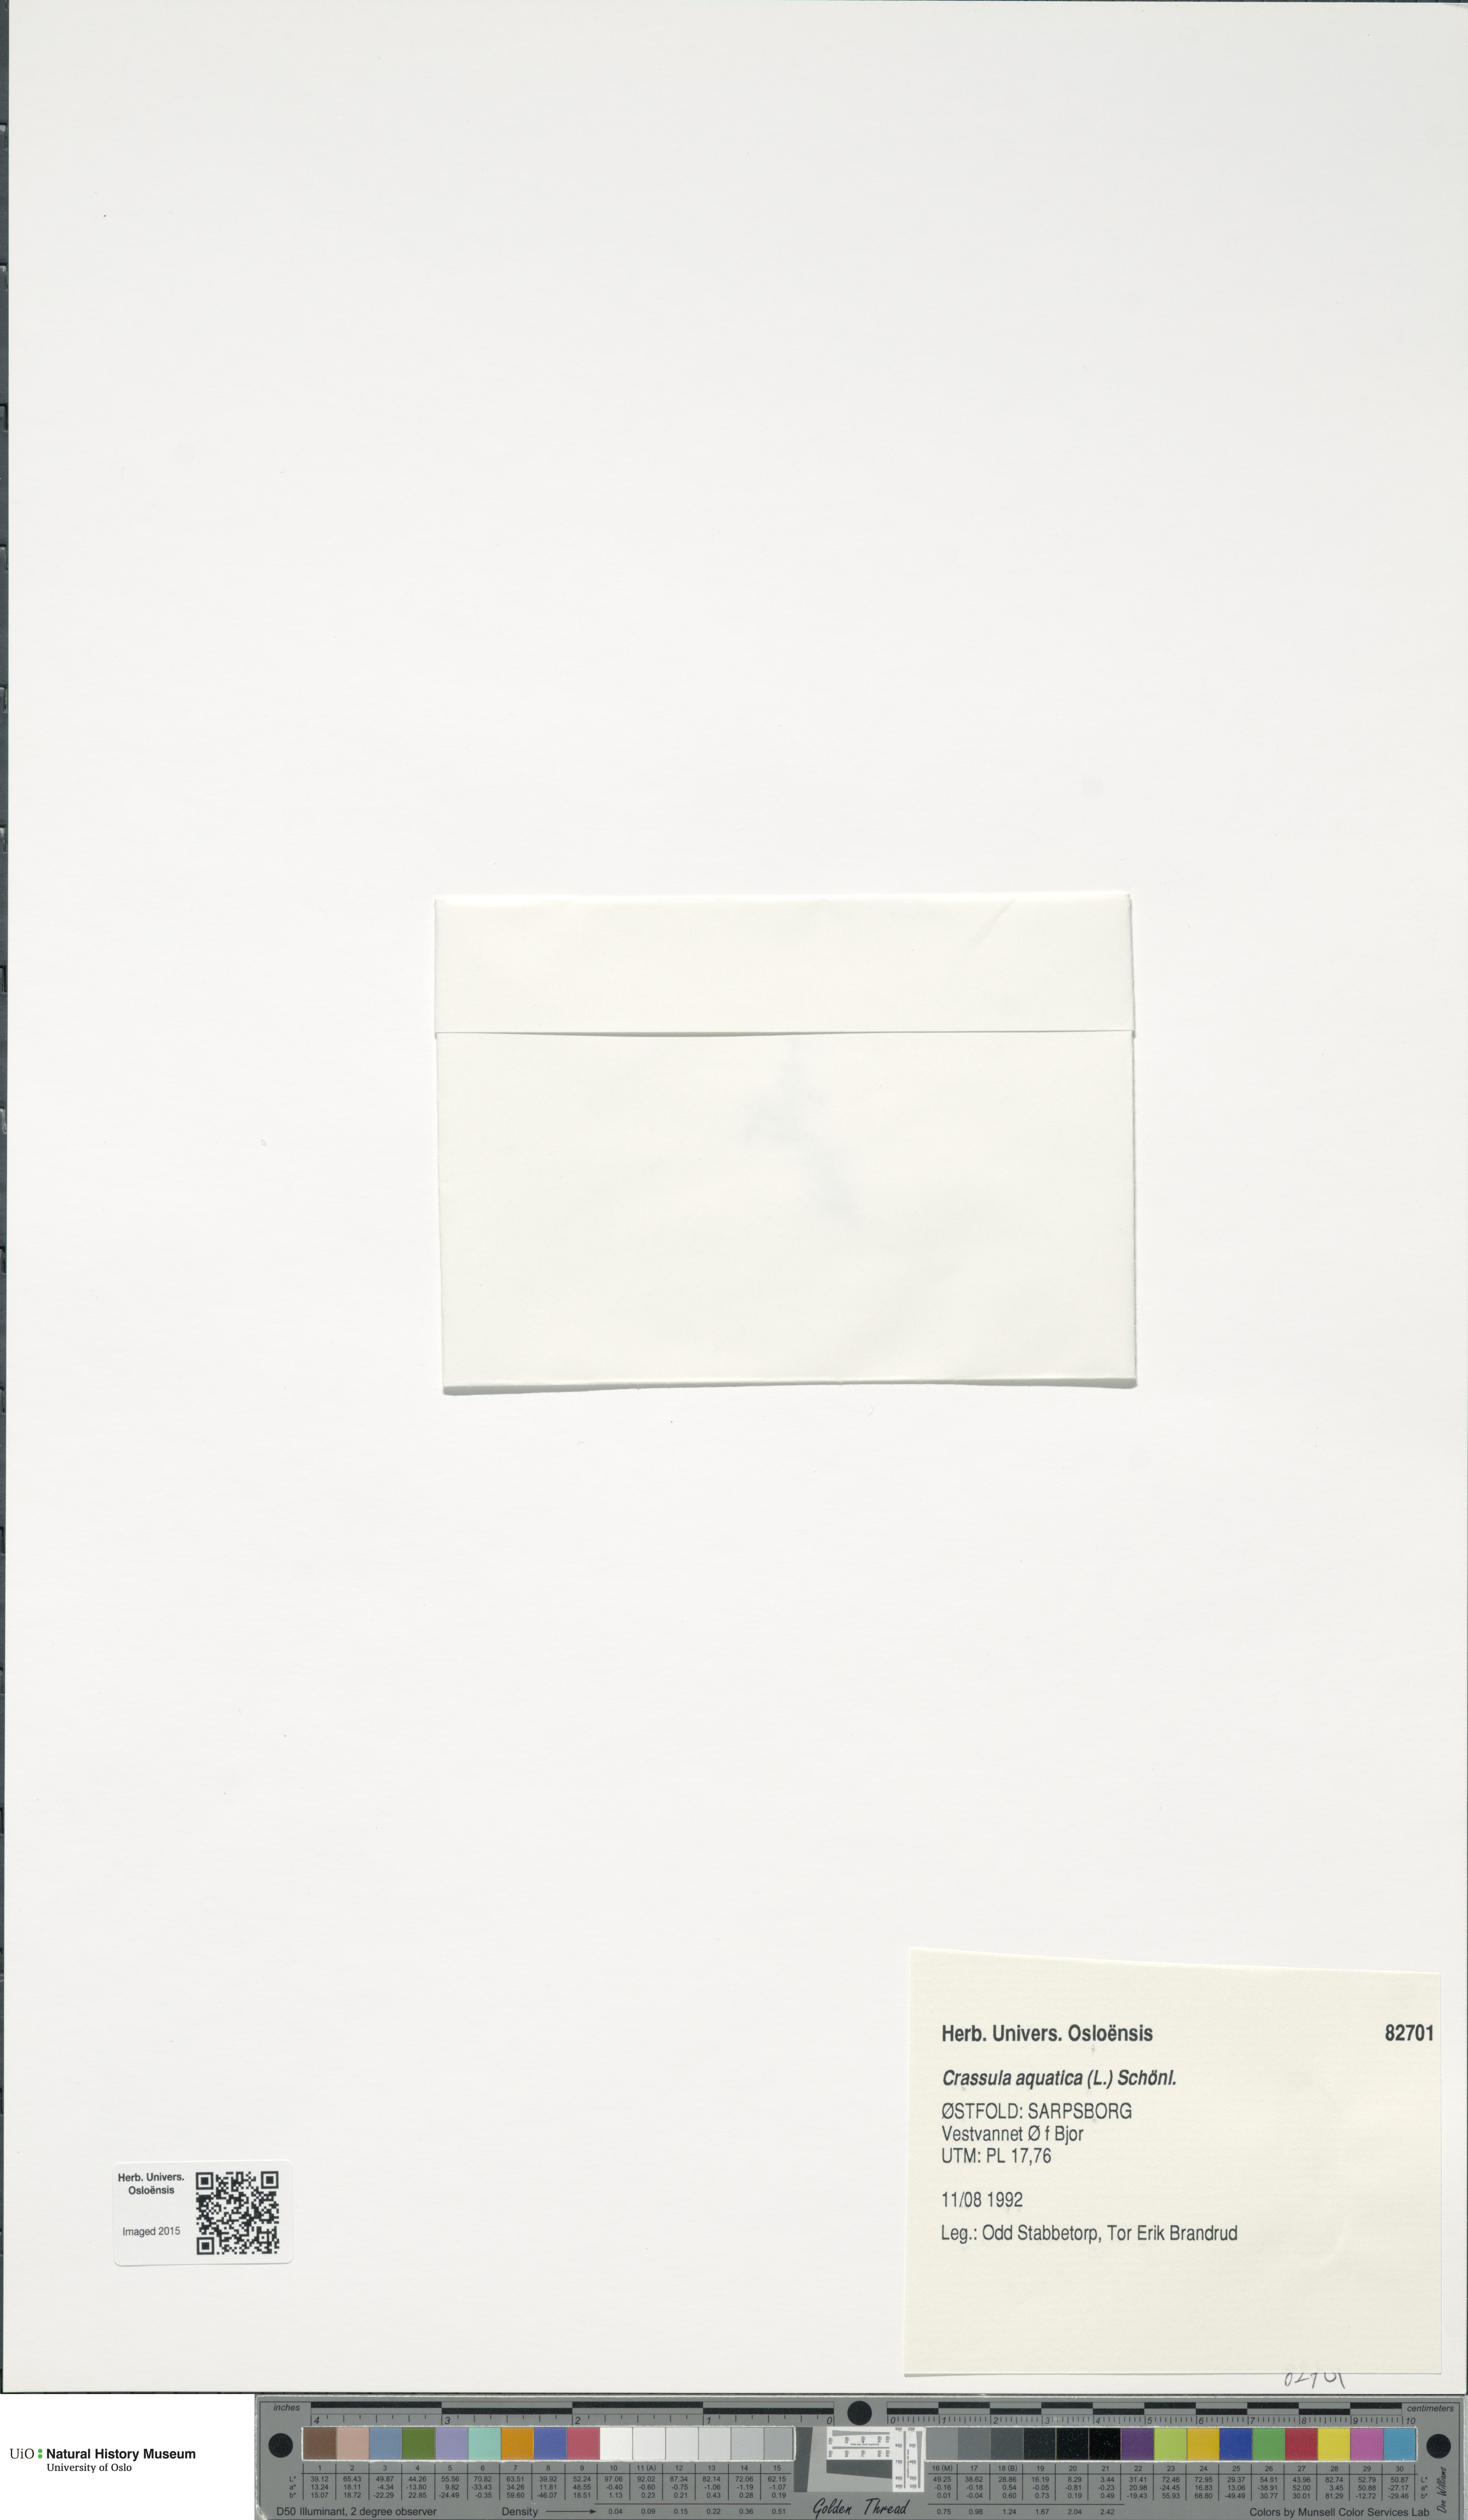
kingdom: Plantae
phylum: Tracheophyta
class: Magnoliopsida
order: Saxifragales
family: Crassulaceae
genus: Crassula
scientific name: Crassula aquatica
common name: Pigmyweed
